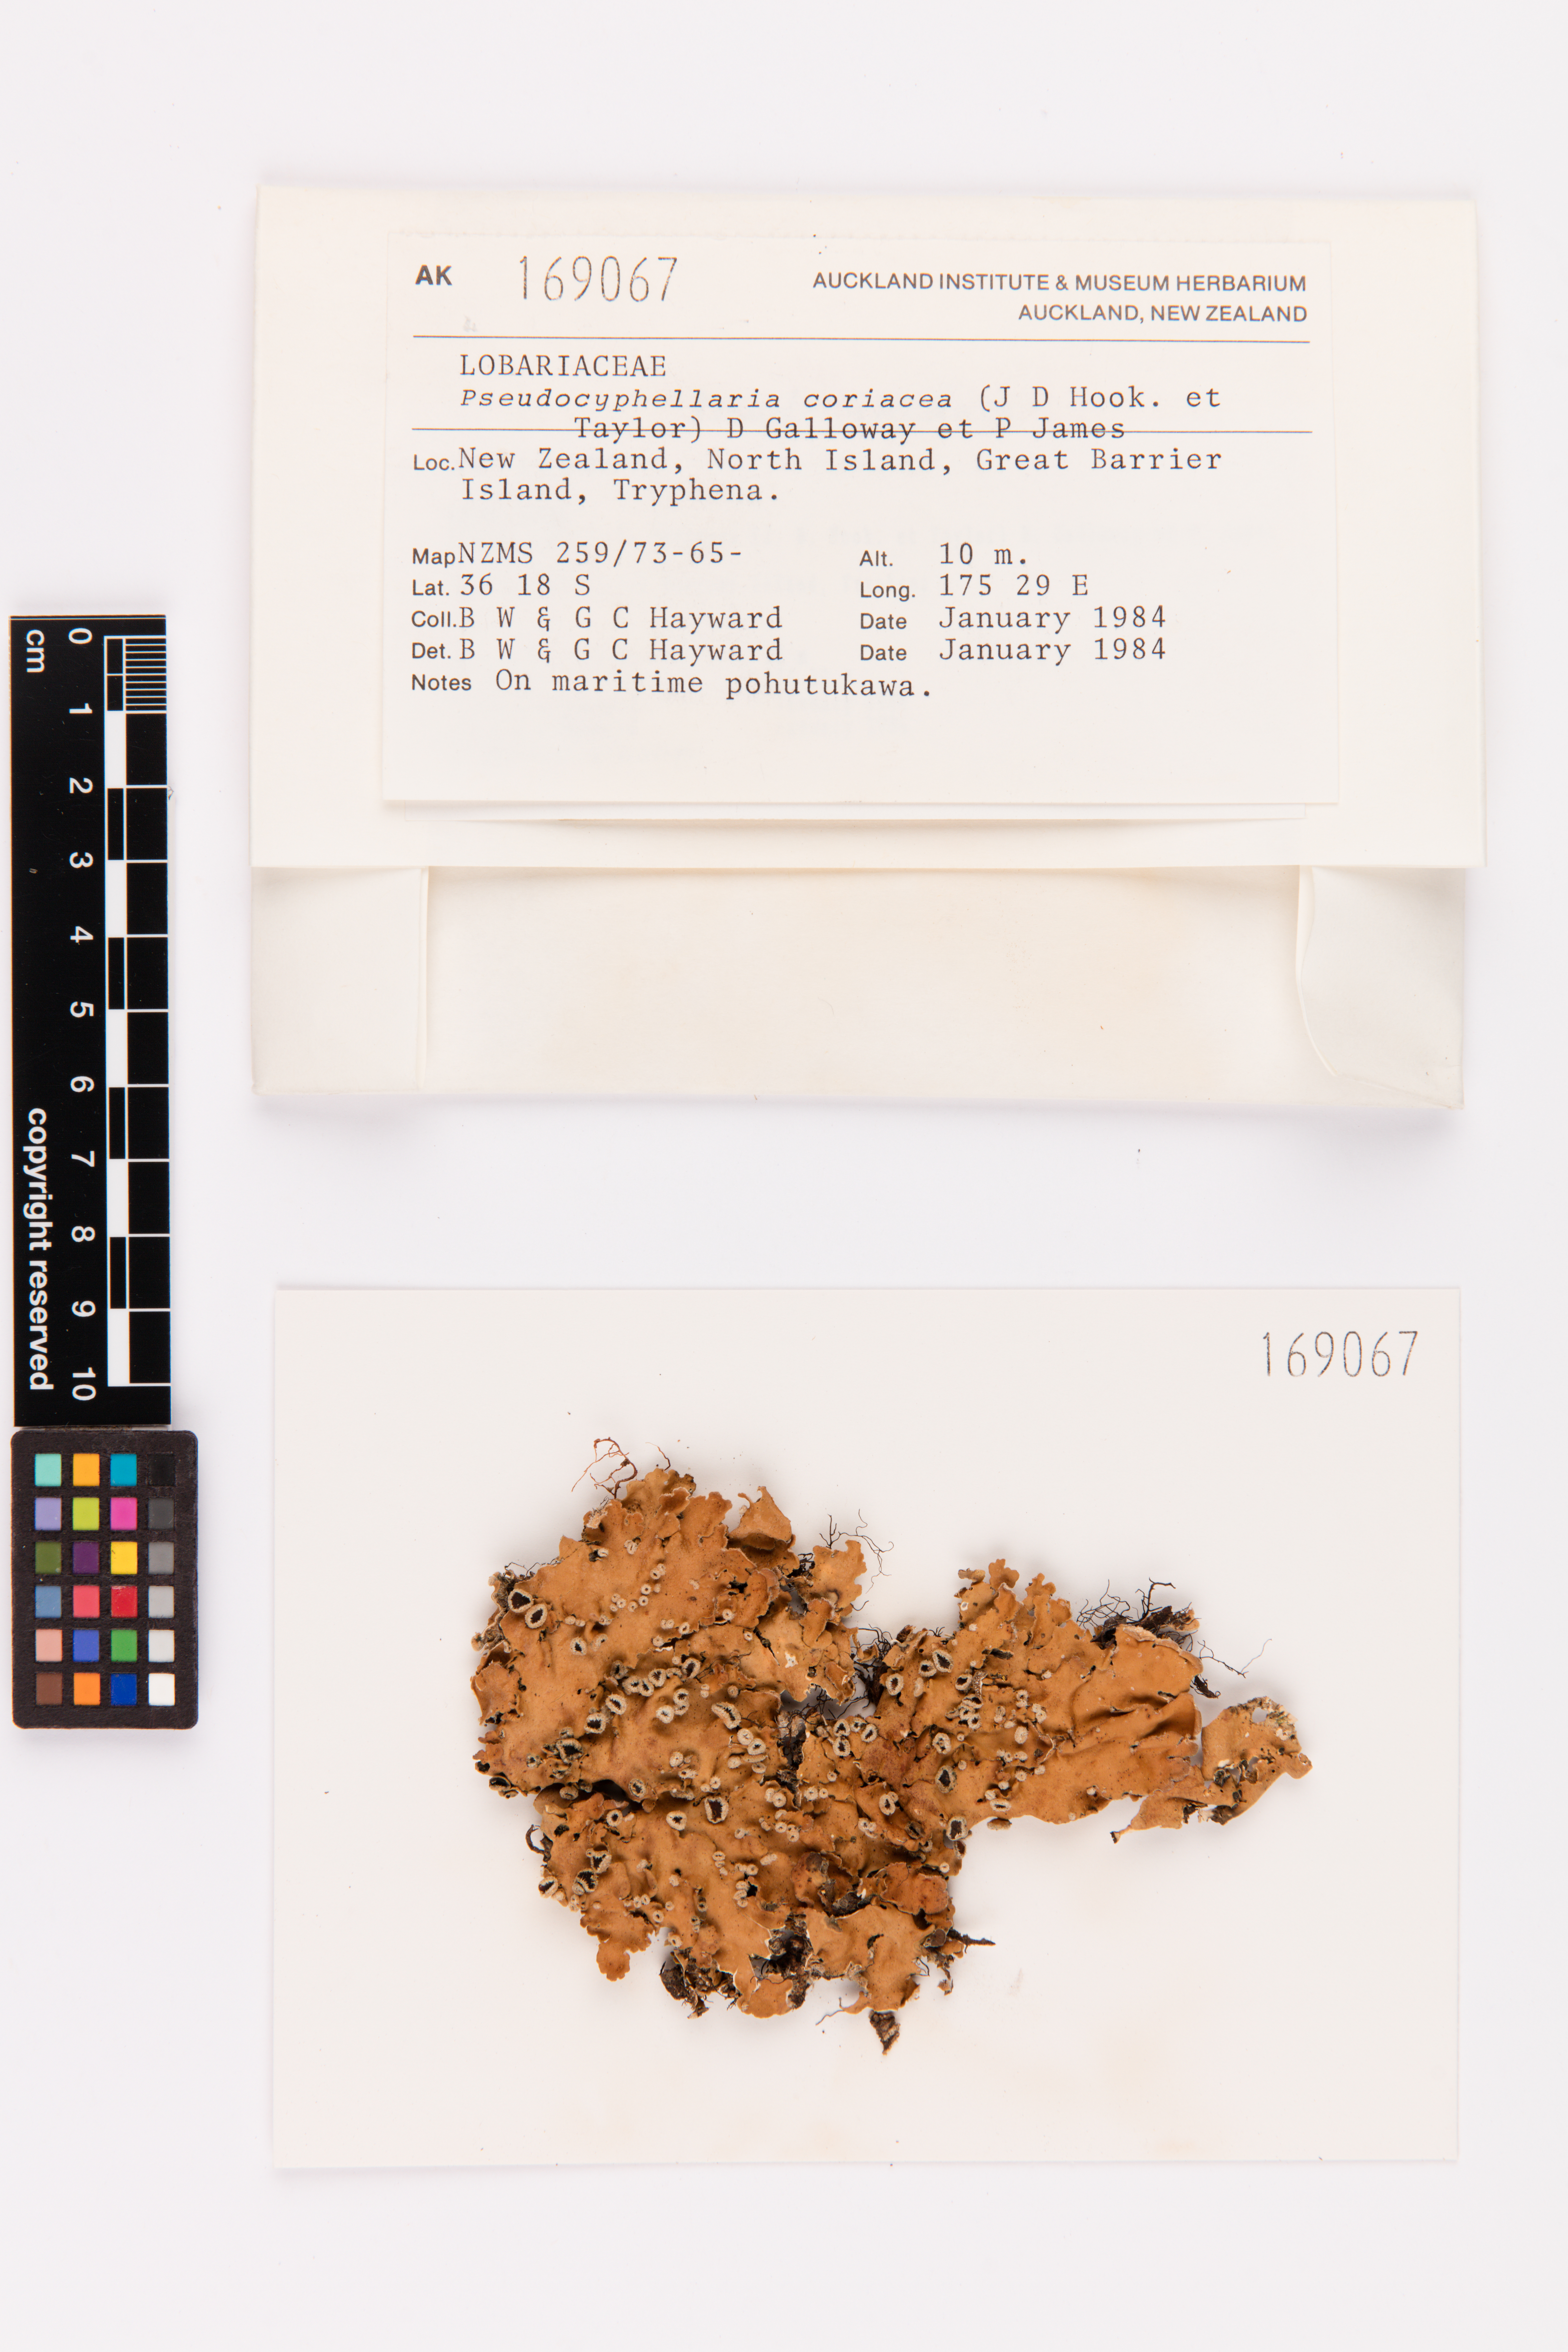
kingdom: Fungi
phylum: Ascomycota
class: Lecanoromycetes
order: Peltigerales
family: Lobariaceae
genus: Pseudocyphellaria
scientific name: Pseudocyphellaria coriacea
